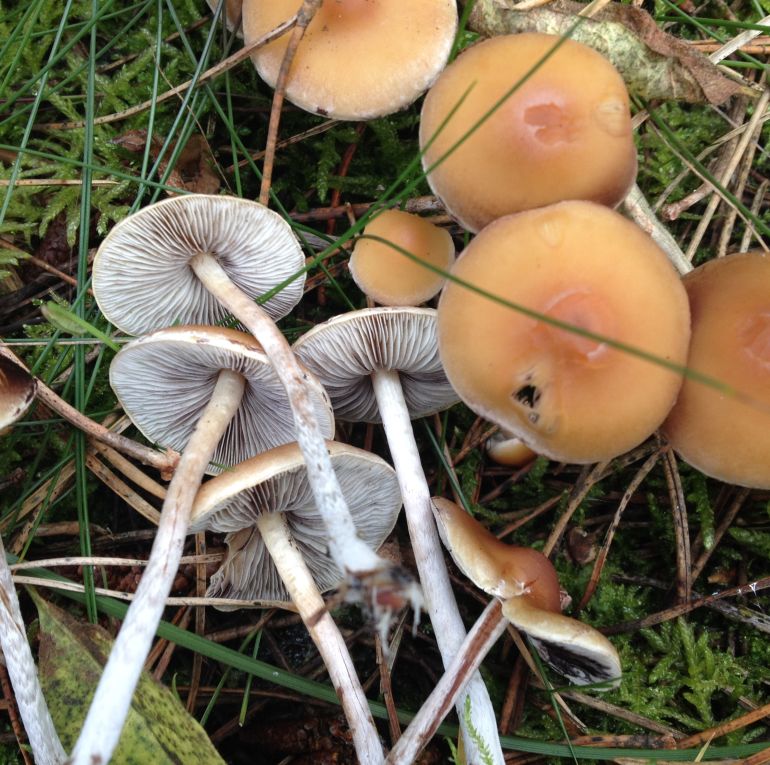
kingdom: Fungi
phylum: Basidiomycota
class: Agaricomycetes
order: Agaricales
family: Strophariaceae
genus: Hypholoma
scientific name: Hypholoma marginatum
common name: enlig svovlhat
